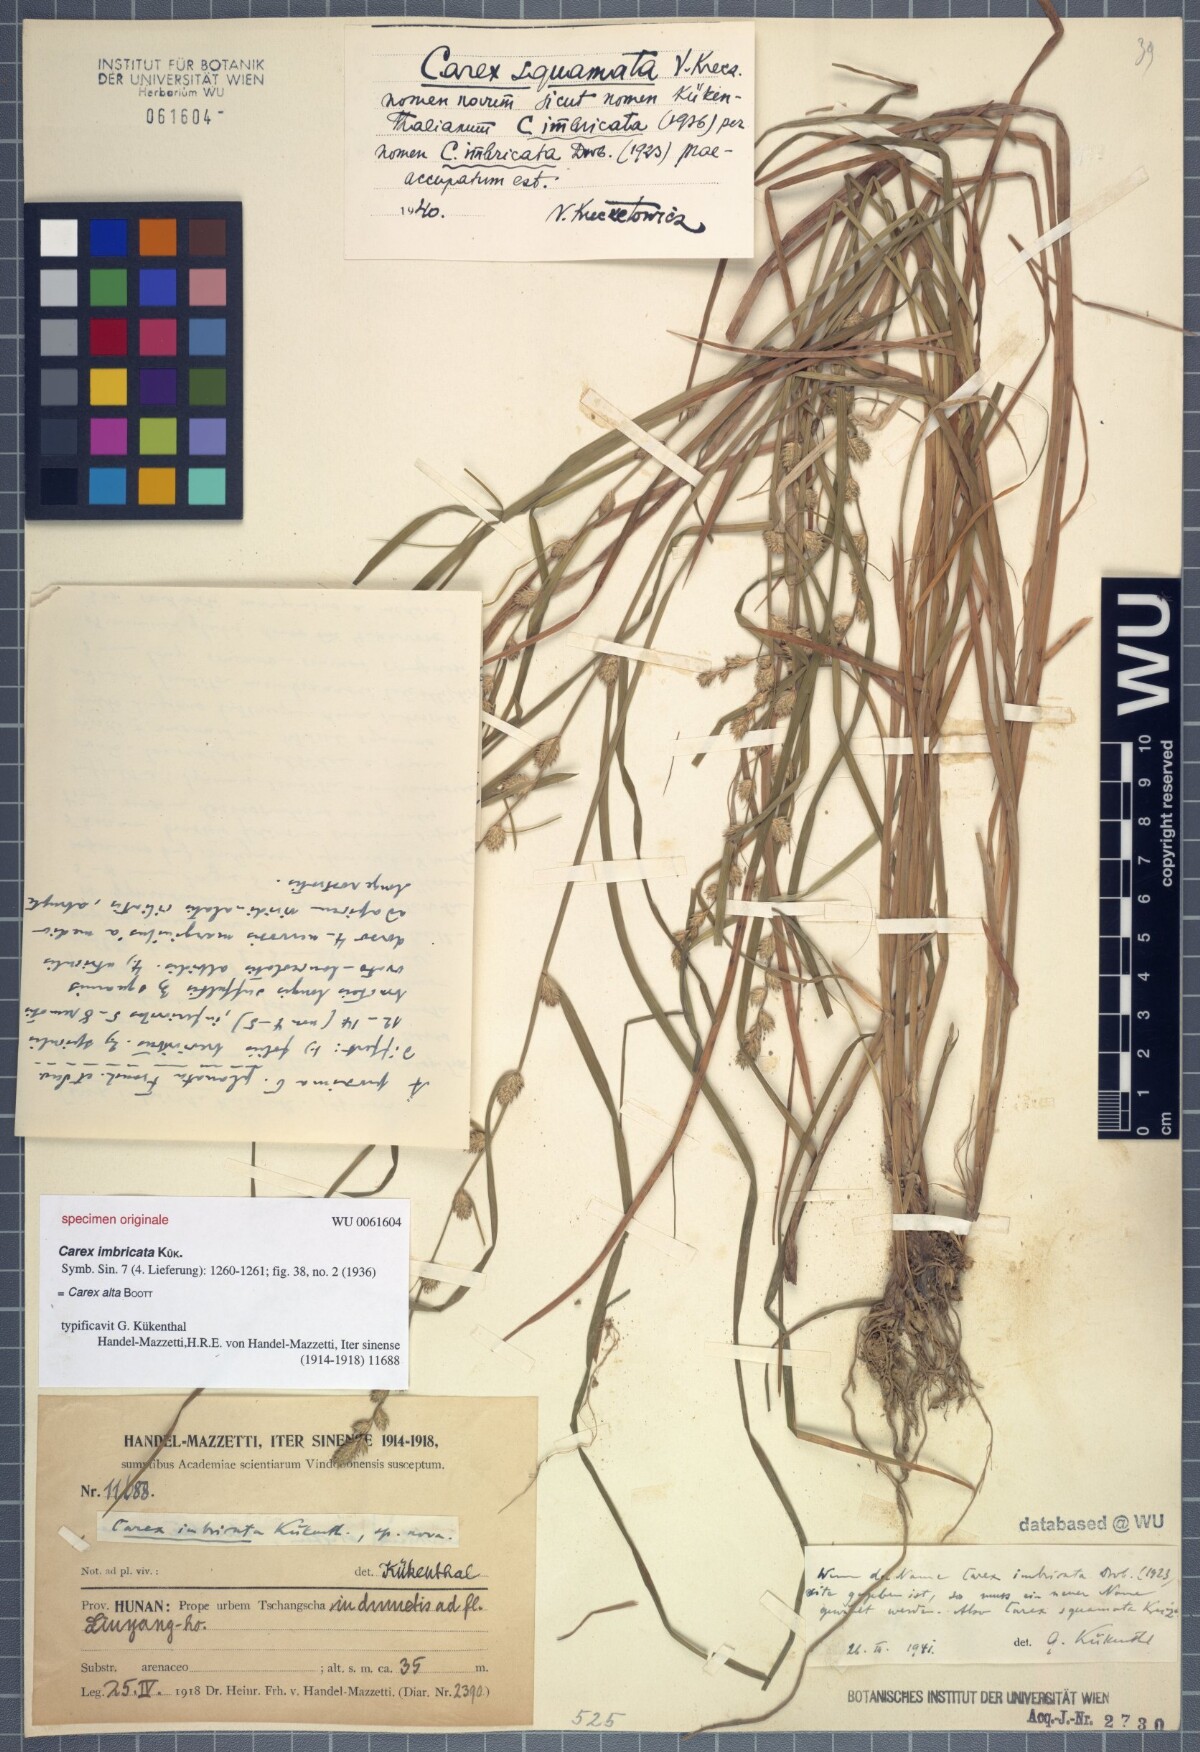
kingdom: Plantae
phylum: Tracheophyta
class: Liliopsida
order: Poales
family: Cyperaceae
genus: Carex
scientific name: Carex alta
